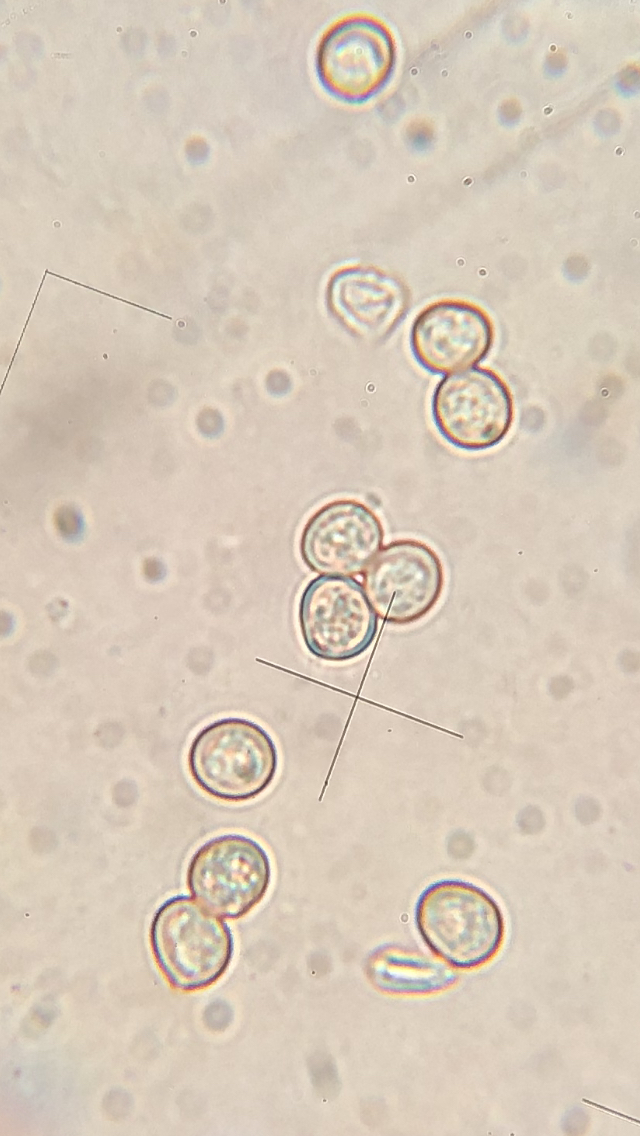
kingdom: Fungi
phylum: Basidiomycota
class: Agaricomycetes
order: Agaricales
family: Pluteaceae
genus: Pluteus
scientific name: Pluteus romellii
